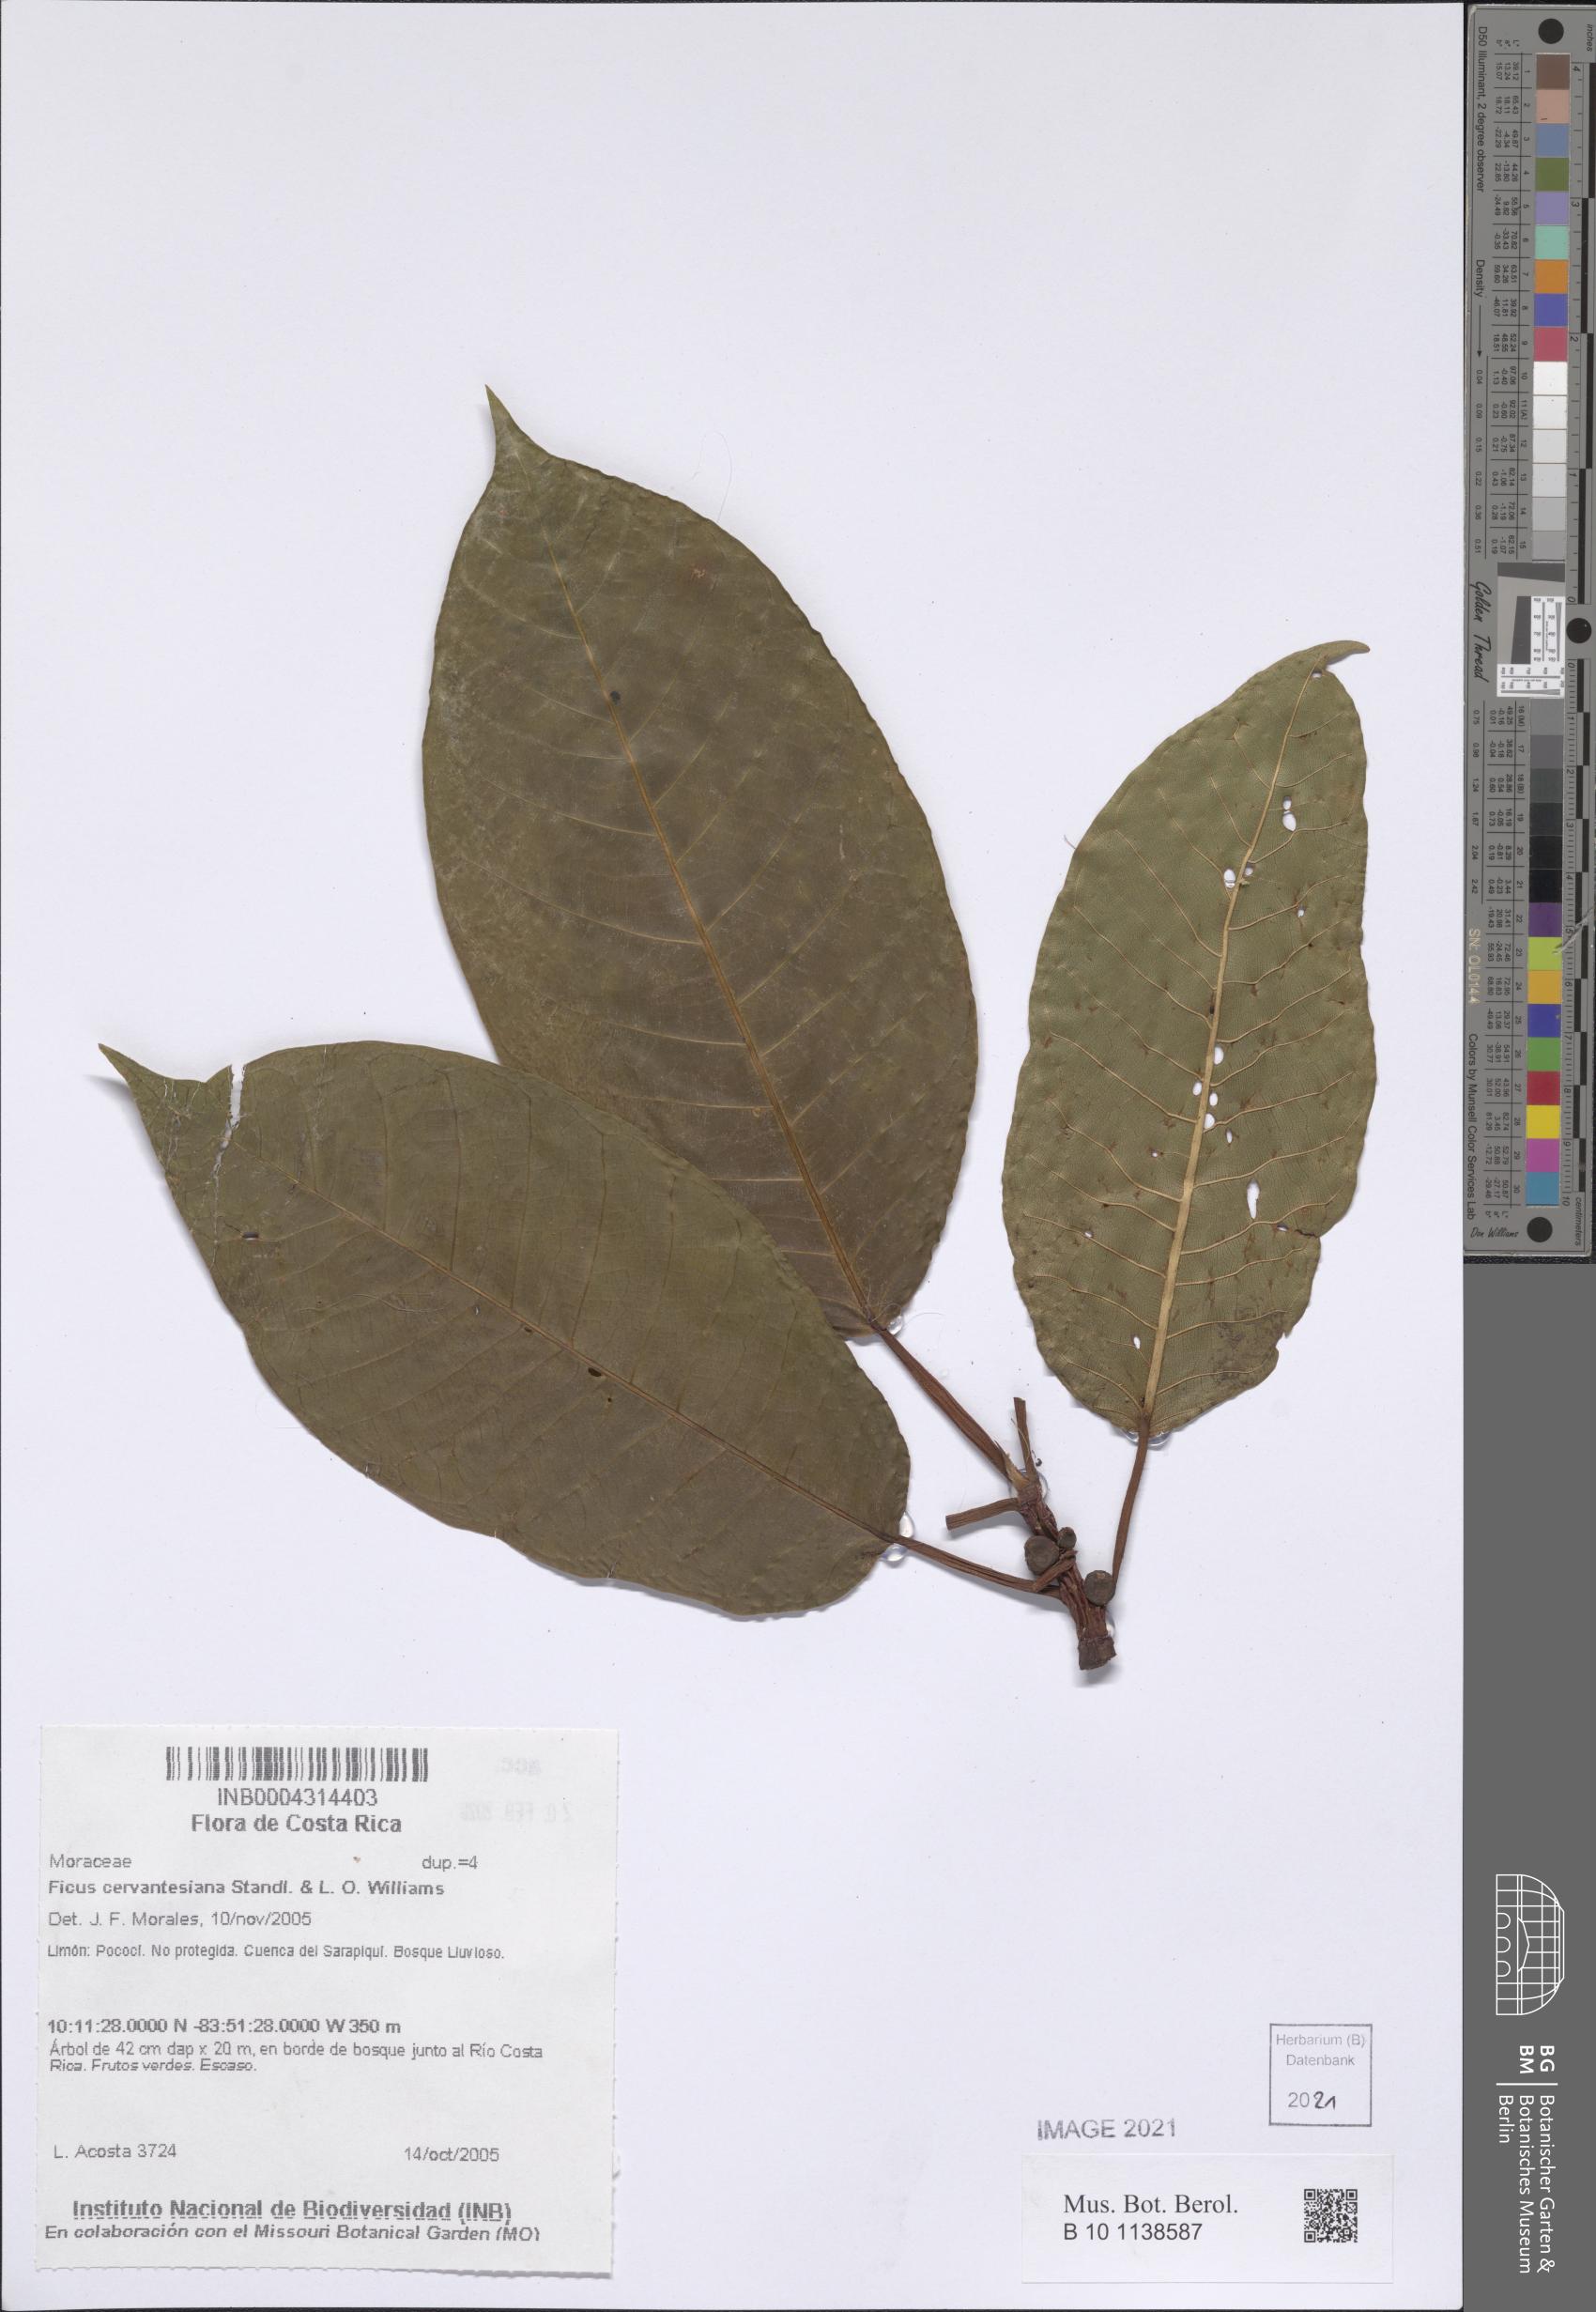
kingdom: Plantae
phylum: Tracheophyta
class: Magnoliopsida
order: Rosales
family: Moraceae
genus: Ficus
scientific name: Ficus cervantesiana
